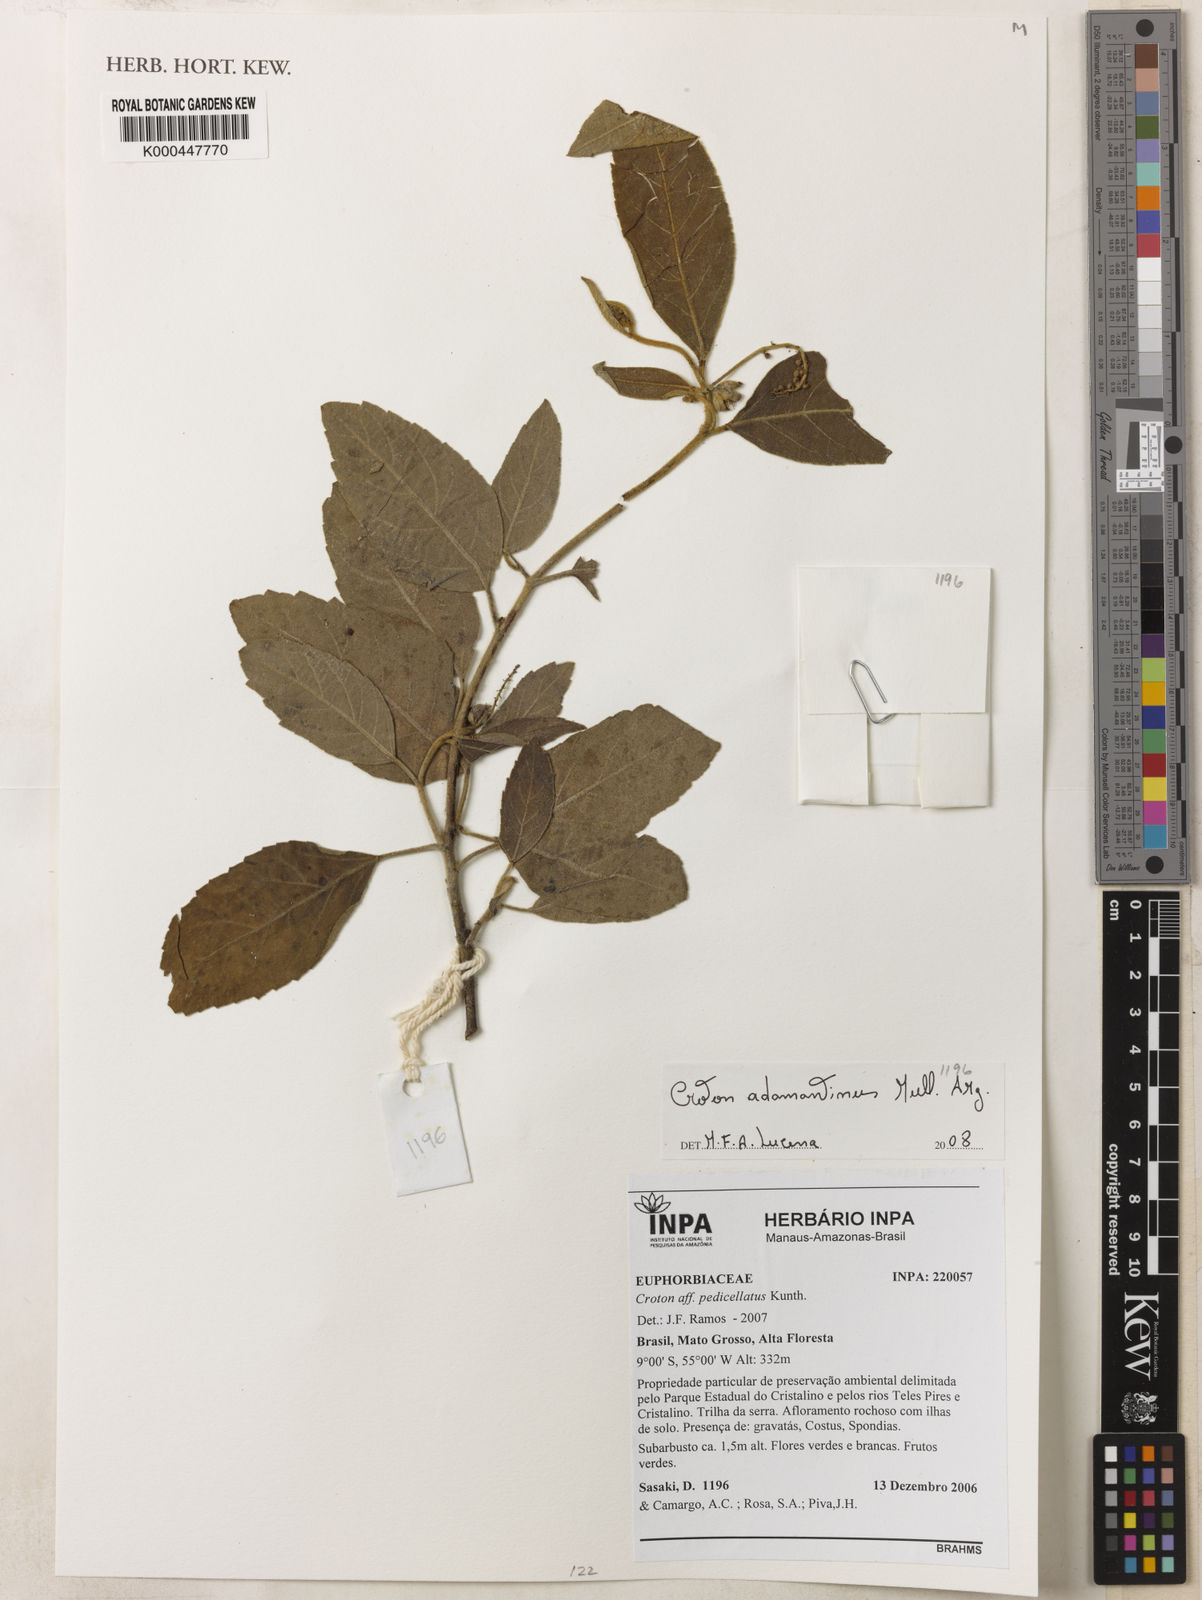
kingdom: Plantae
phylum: Tracheophyta
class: Magnoliopsida
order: Malpighiales
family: Euphorbiaceae
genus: Croton
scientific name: Croton
